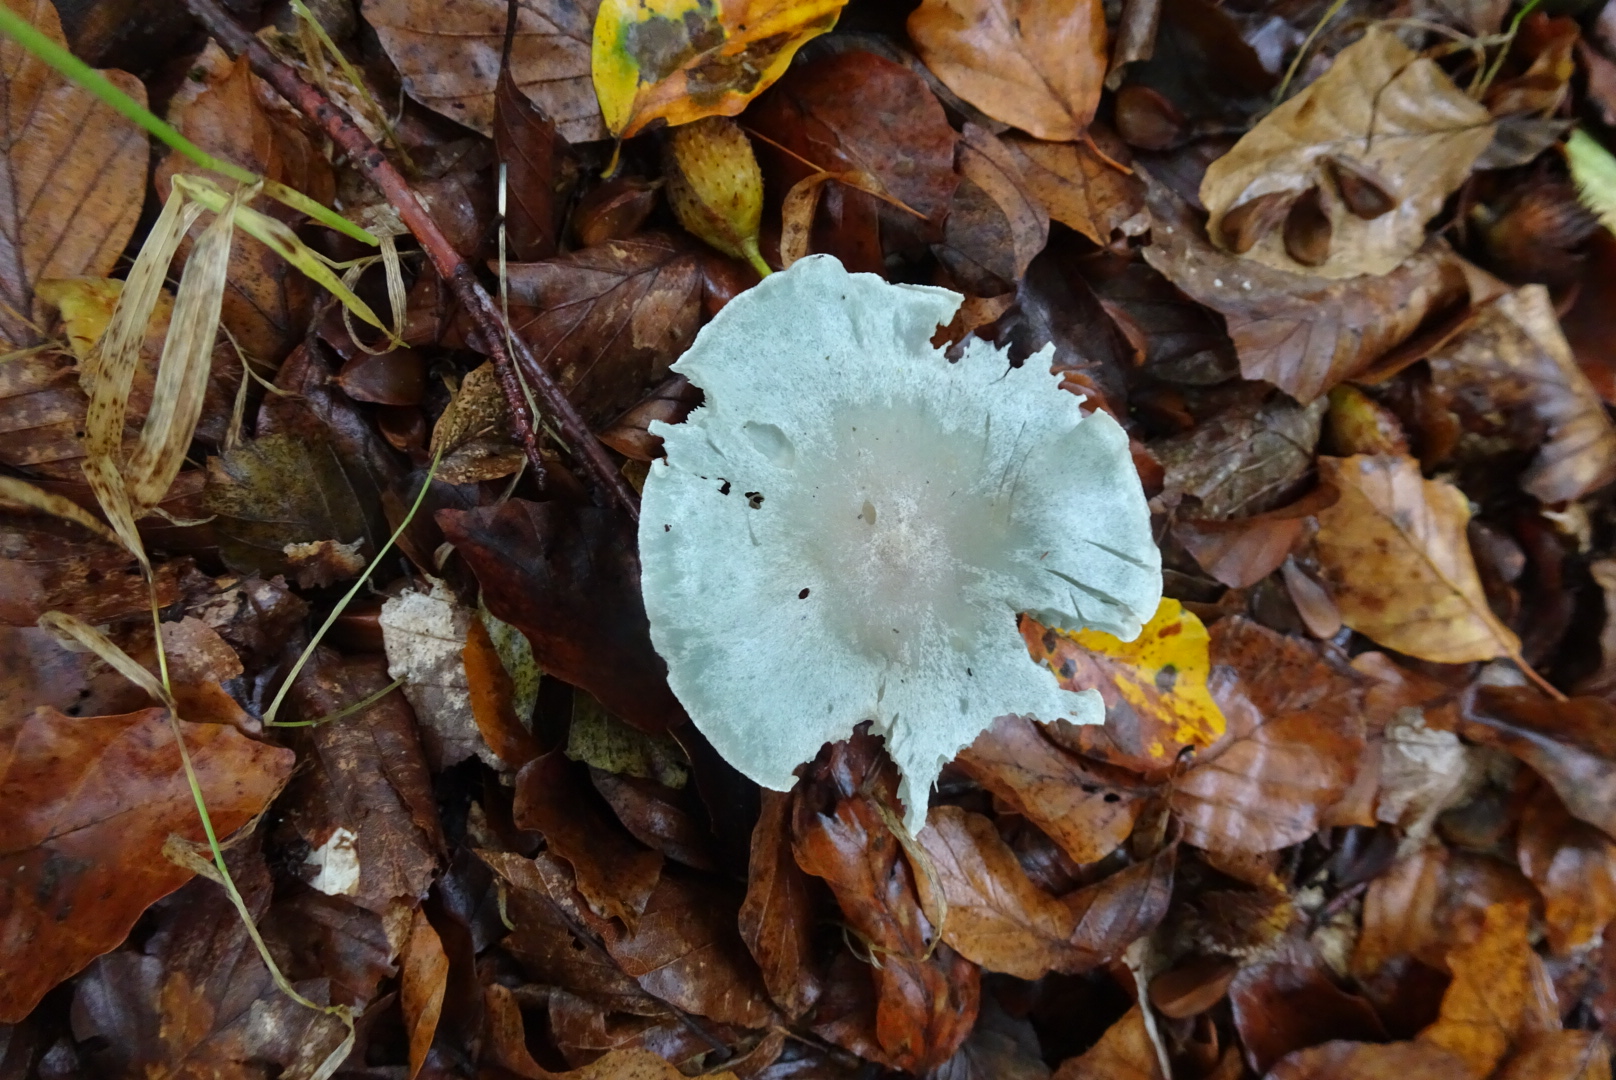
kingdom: Fungi
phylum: Basidiomycota
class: Agaricomycetes
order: Agaricales
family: Tricholomataceae
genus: Clitocybe
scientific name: Clitocybe odora
